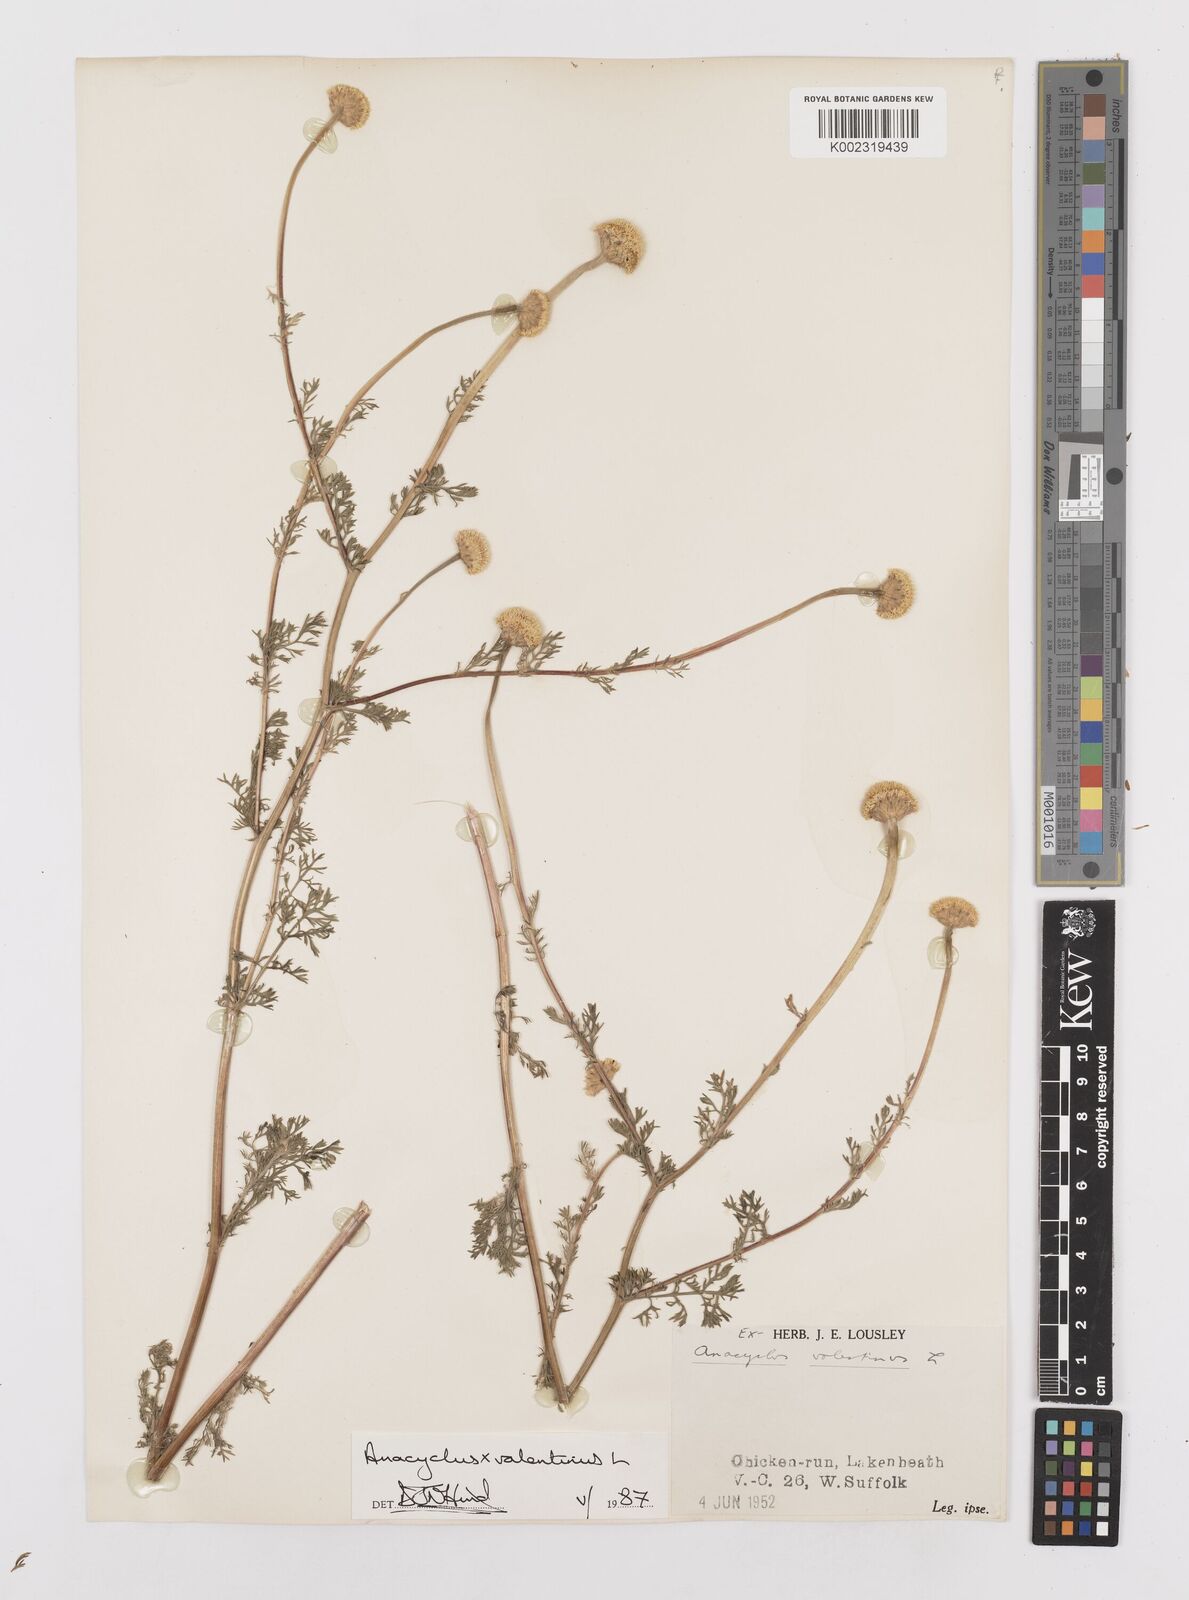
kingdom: Plantae
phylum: Tracheophyta
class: Magnoliopsida
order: Asterales
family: Asteraceae
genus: Anacyclus
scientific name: Anacyclus valentinus
